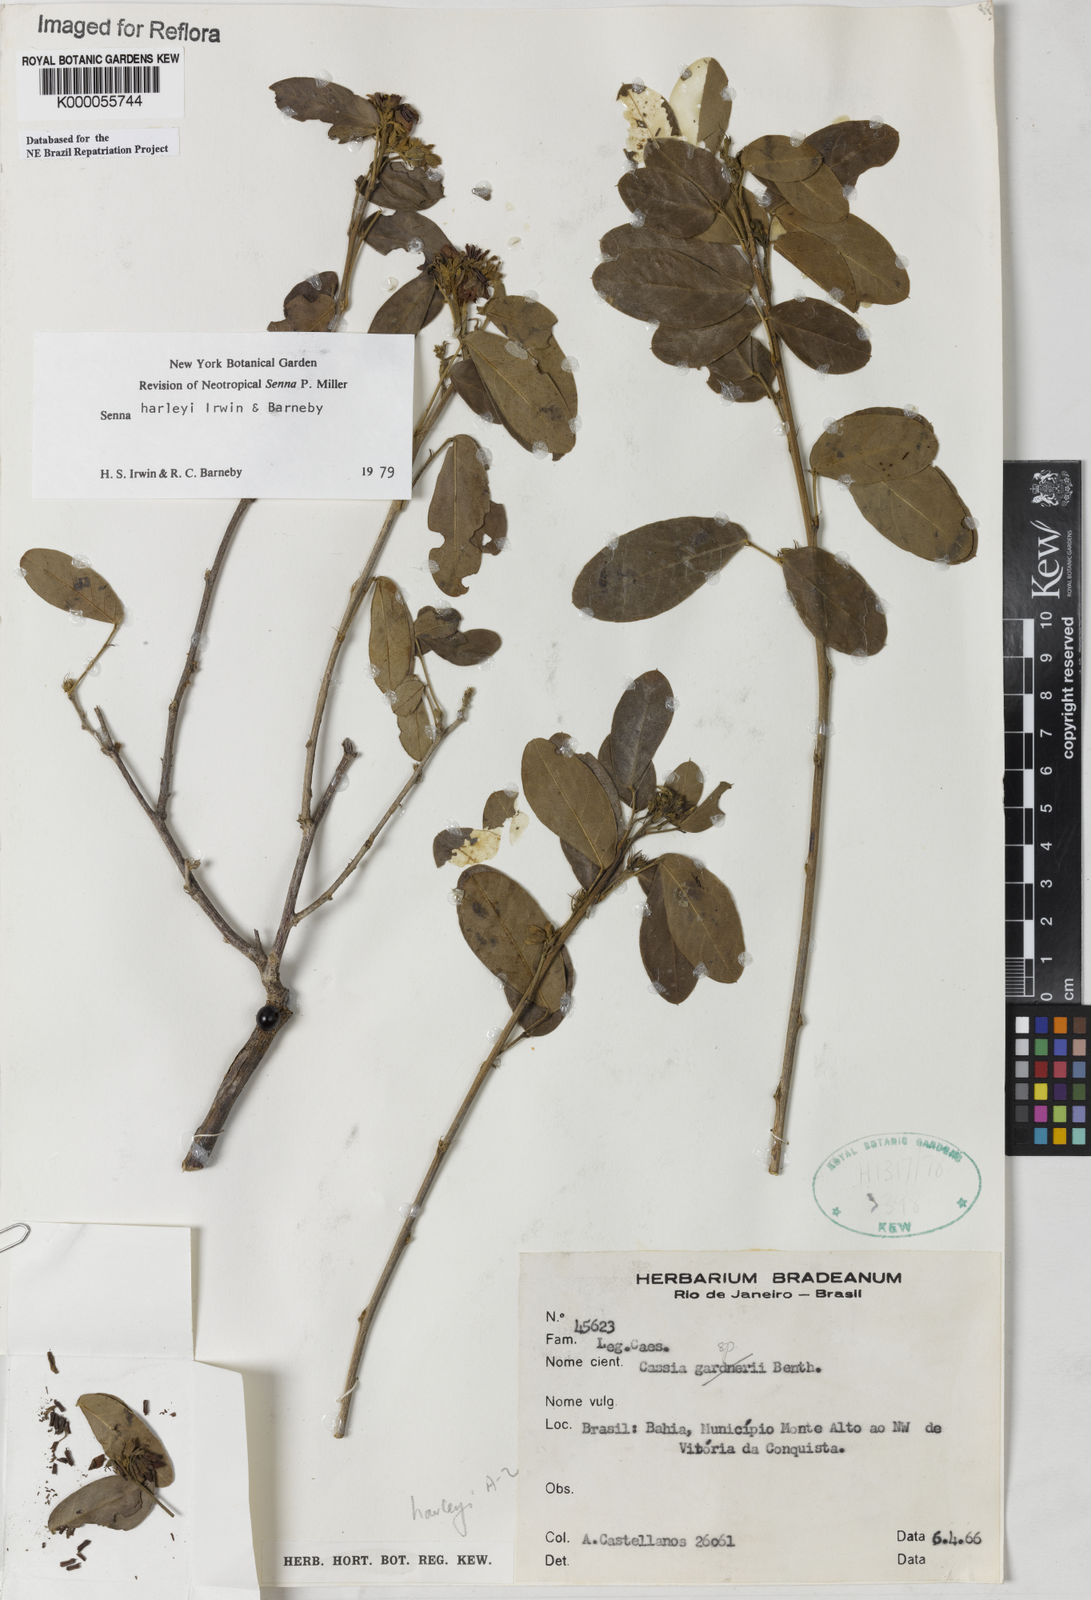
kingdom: Plantae
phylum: Tracheophyta
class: Magnoliopsida
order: Fabales
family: Fabaceae
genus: Senna
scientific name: Senna harleyi
